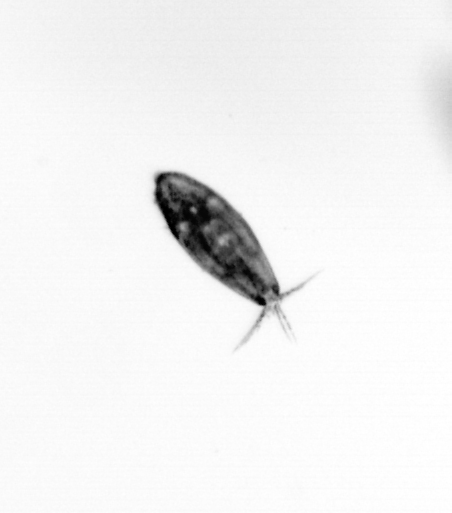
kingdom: Animalia
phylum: Arthropoda
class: Maxillopoda
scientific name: Maxillopoda
